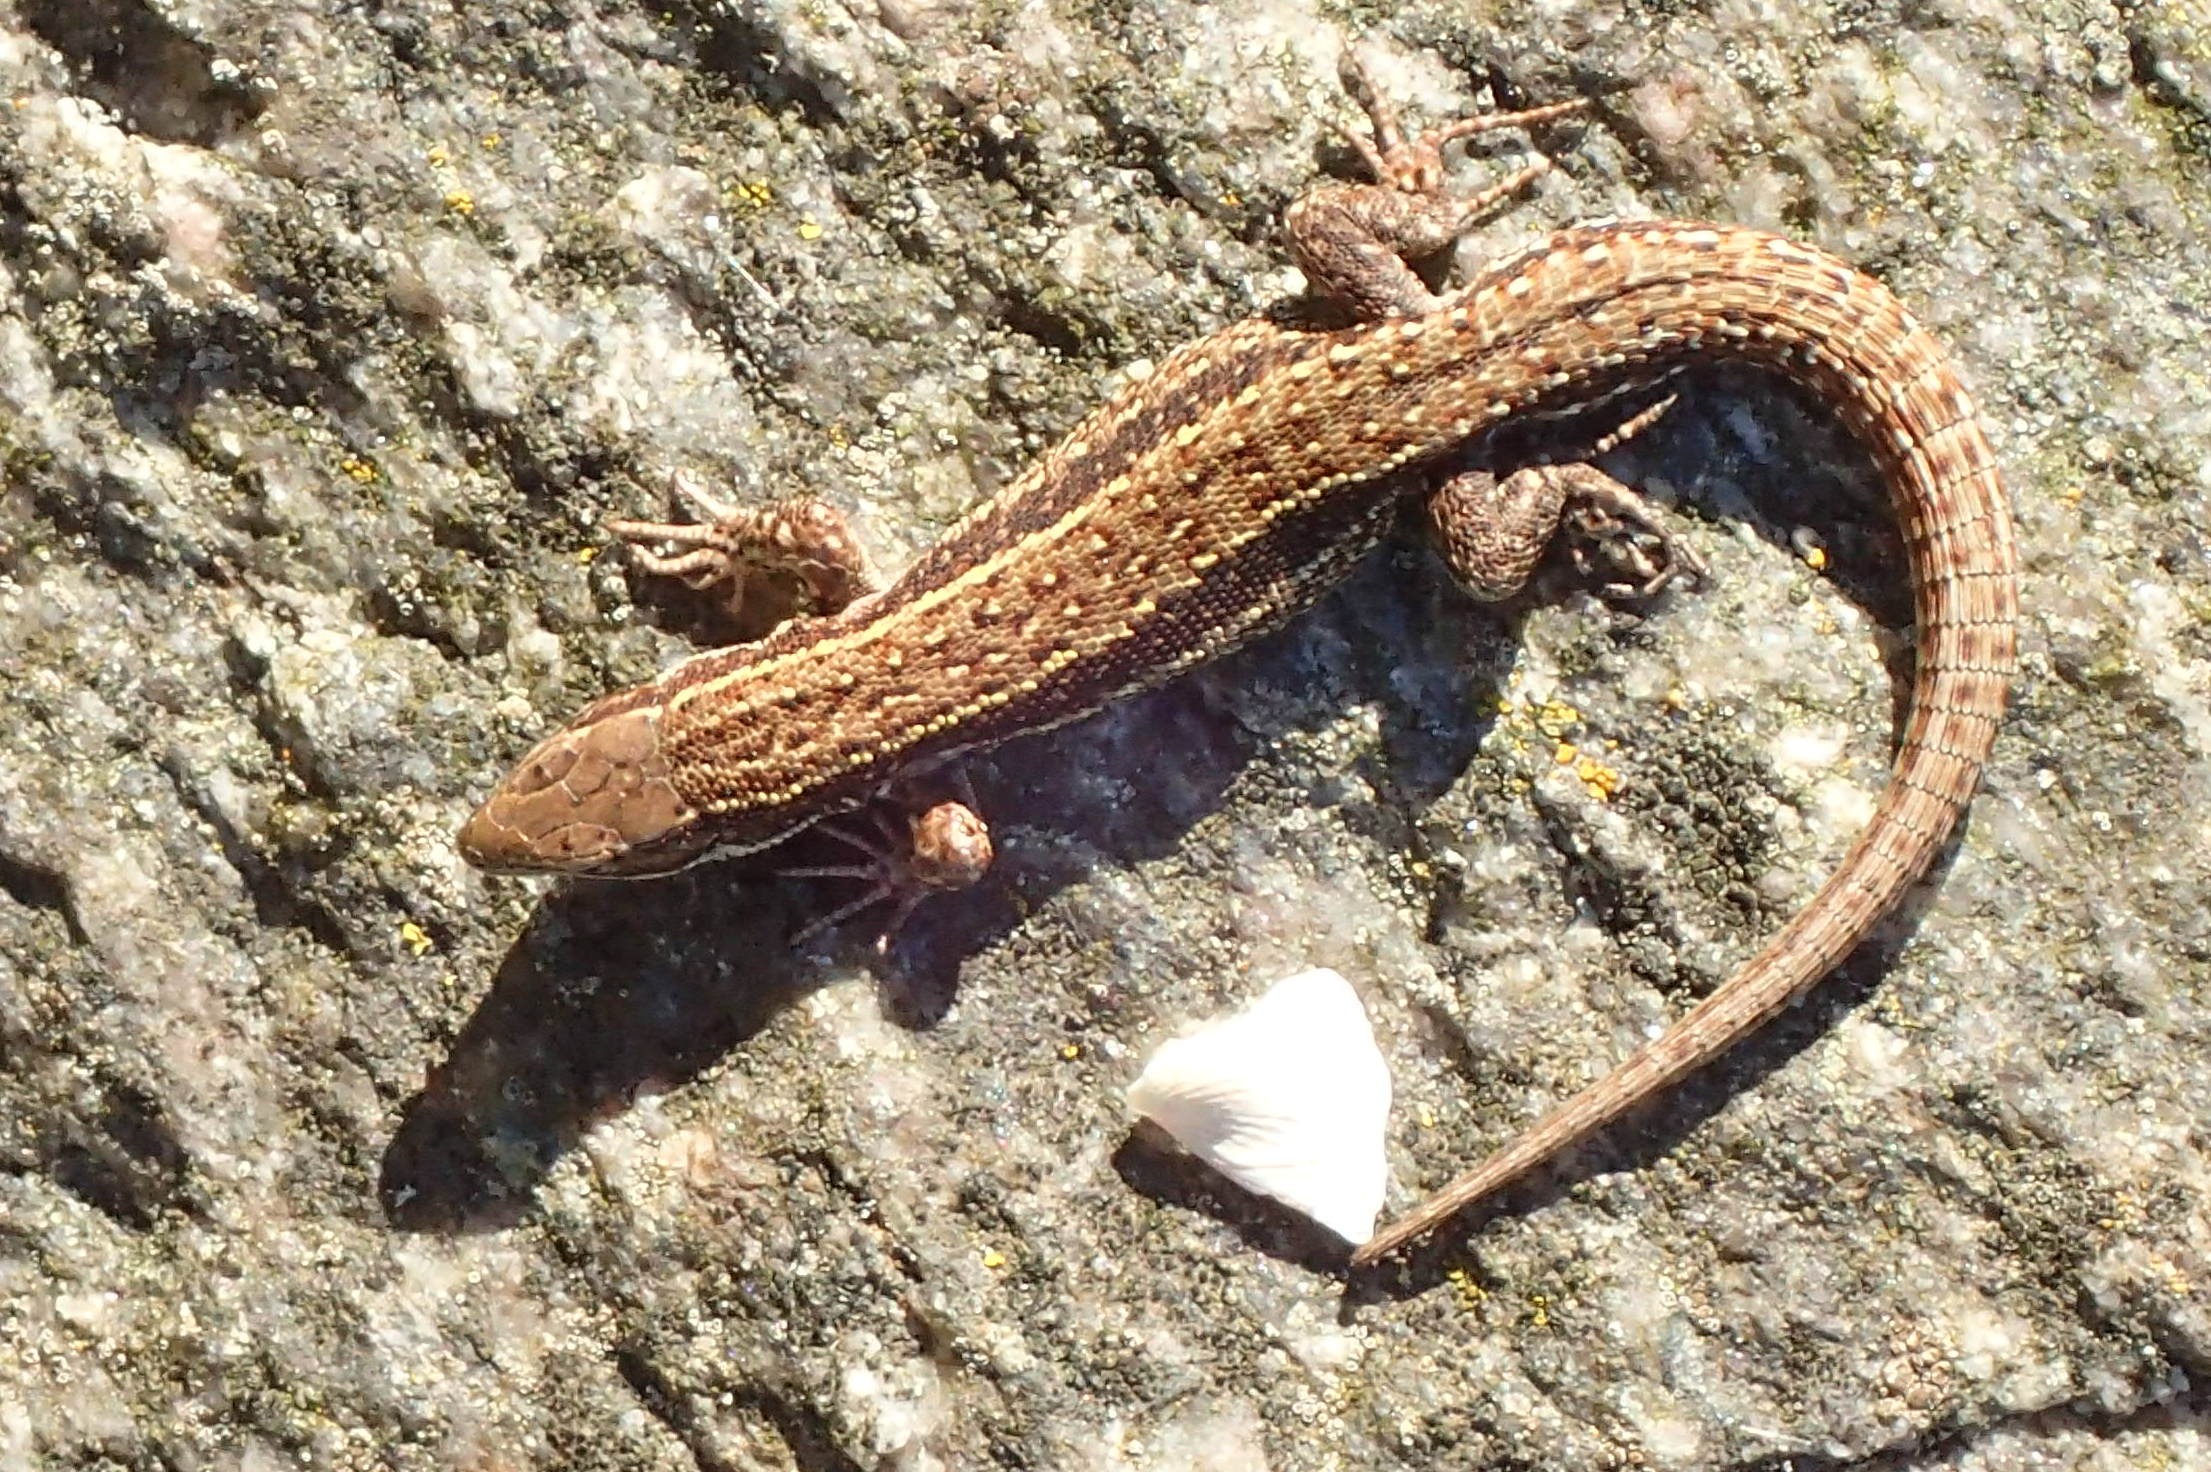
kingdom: Animalia
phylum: Chordata
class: Squamata
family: Lacertidae
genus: Zootoca
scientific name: Zootoca vivipara
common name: Skovfirben
